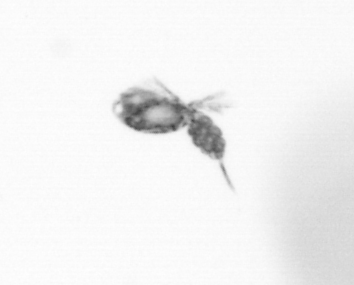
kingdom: Animalia
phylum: Arthropoda
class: Copepoda
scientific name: Copepoda
